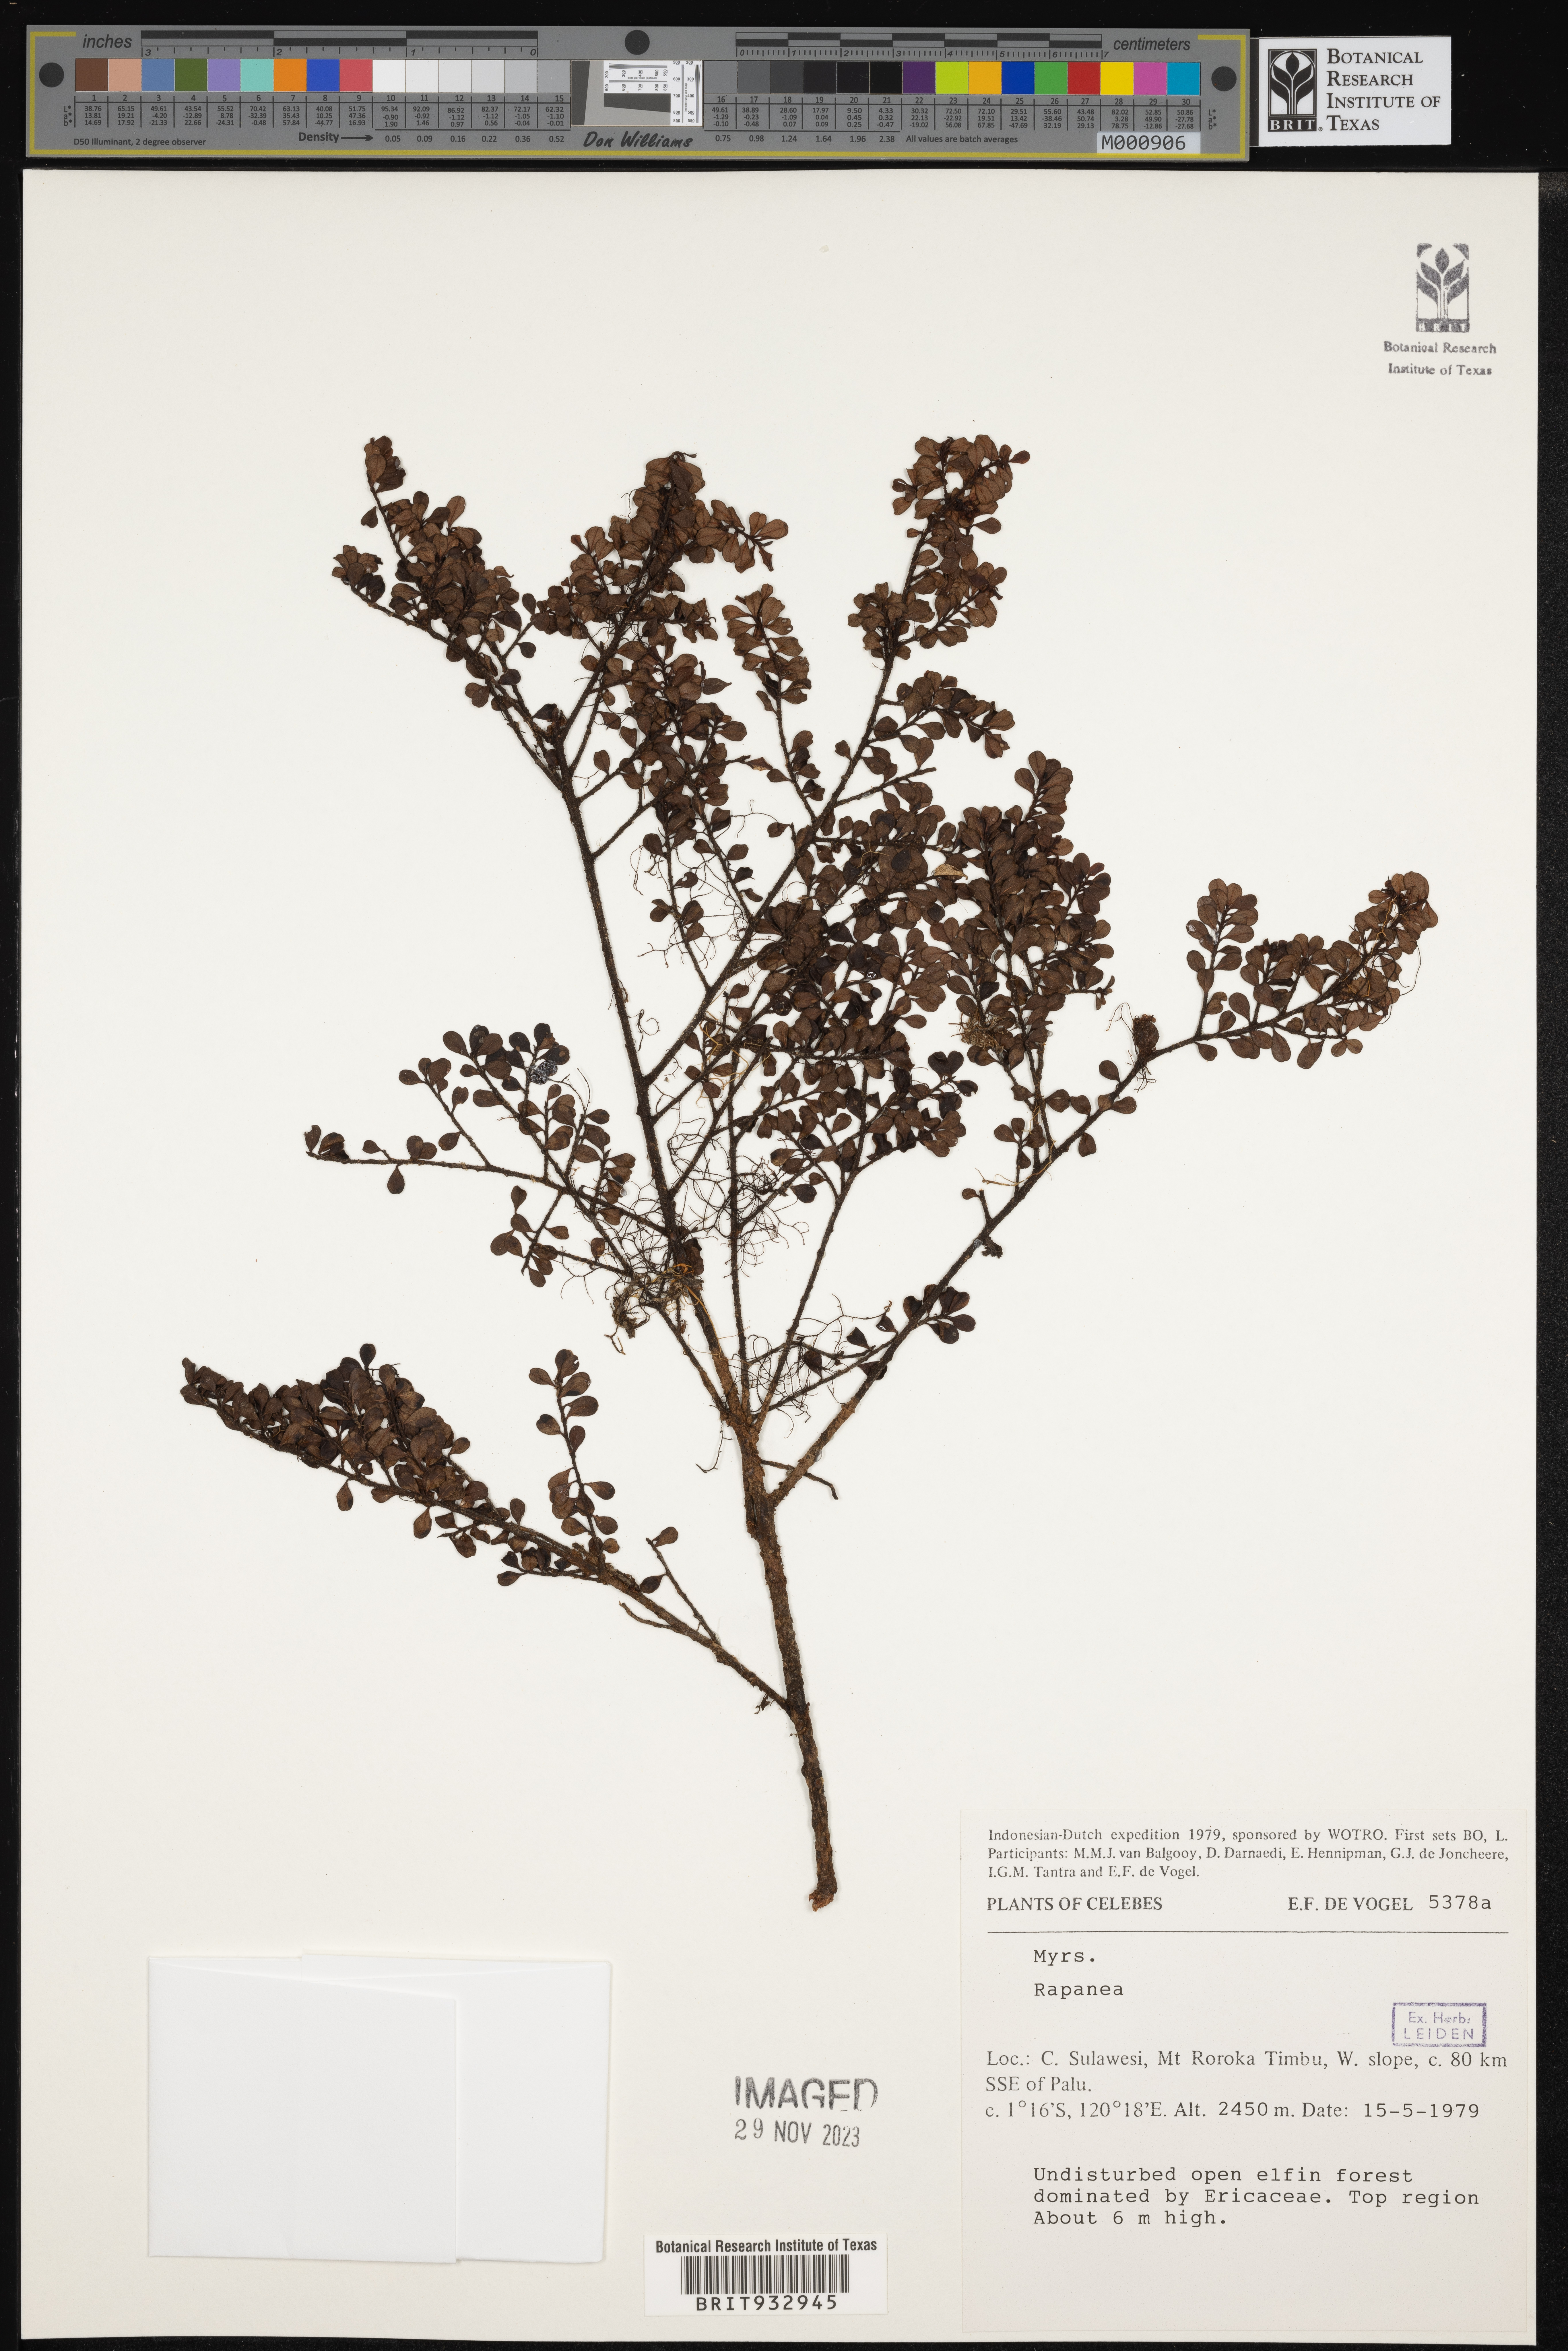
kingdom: Plantae
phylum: Tracheophyta
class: Magnoliopsida
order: Ericales
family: Primulaceae
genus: Myrsine
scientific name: Myrsine
